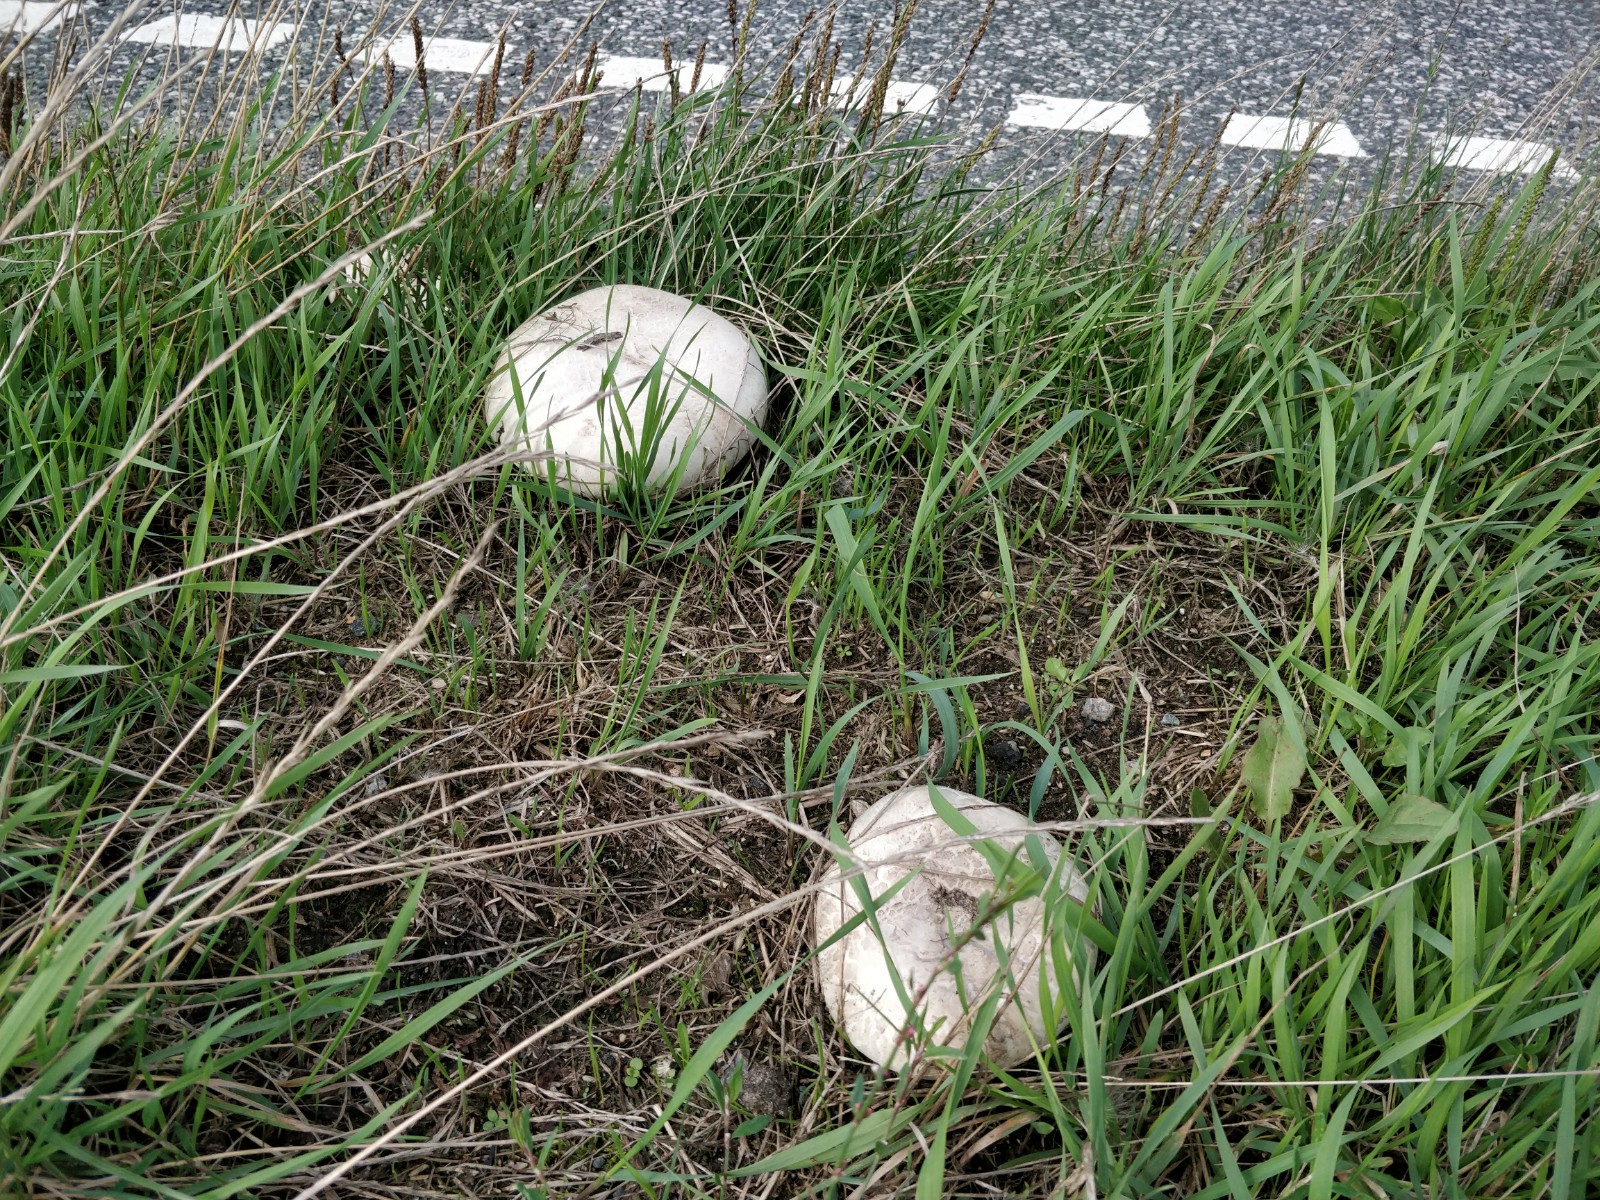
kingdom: Fungi
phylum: Basidiomycota
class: Agaricomycetes
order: Agaricales
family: Agaricaceae
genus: Agaricus
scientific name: Agaricus bitorquis
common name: vej-champignon
